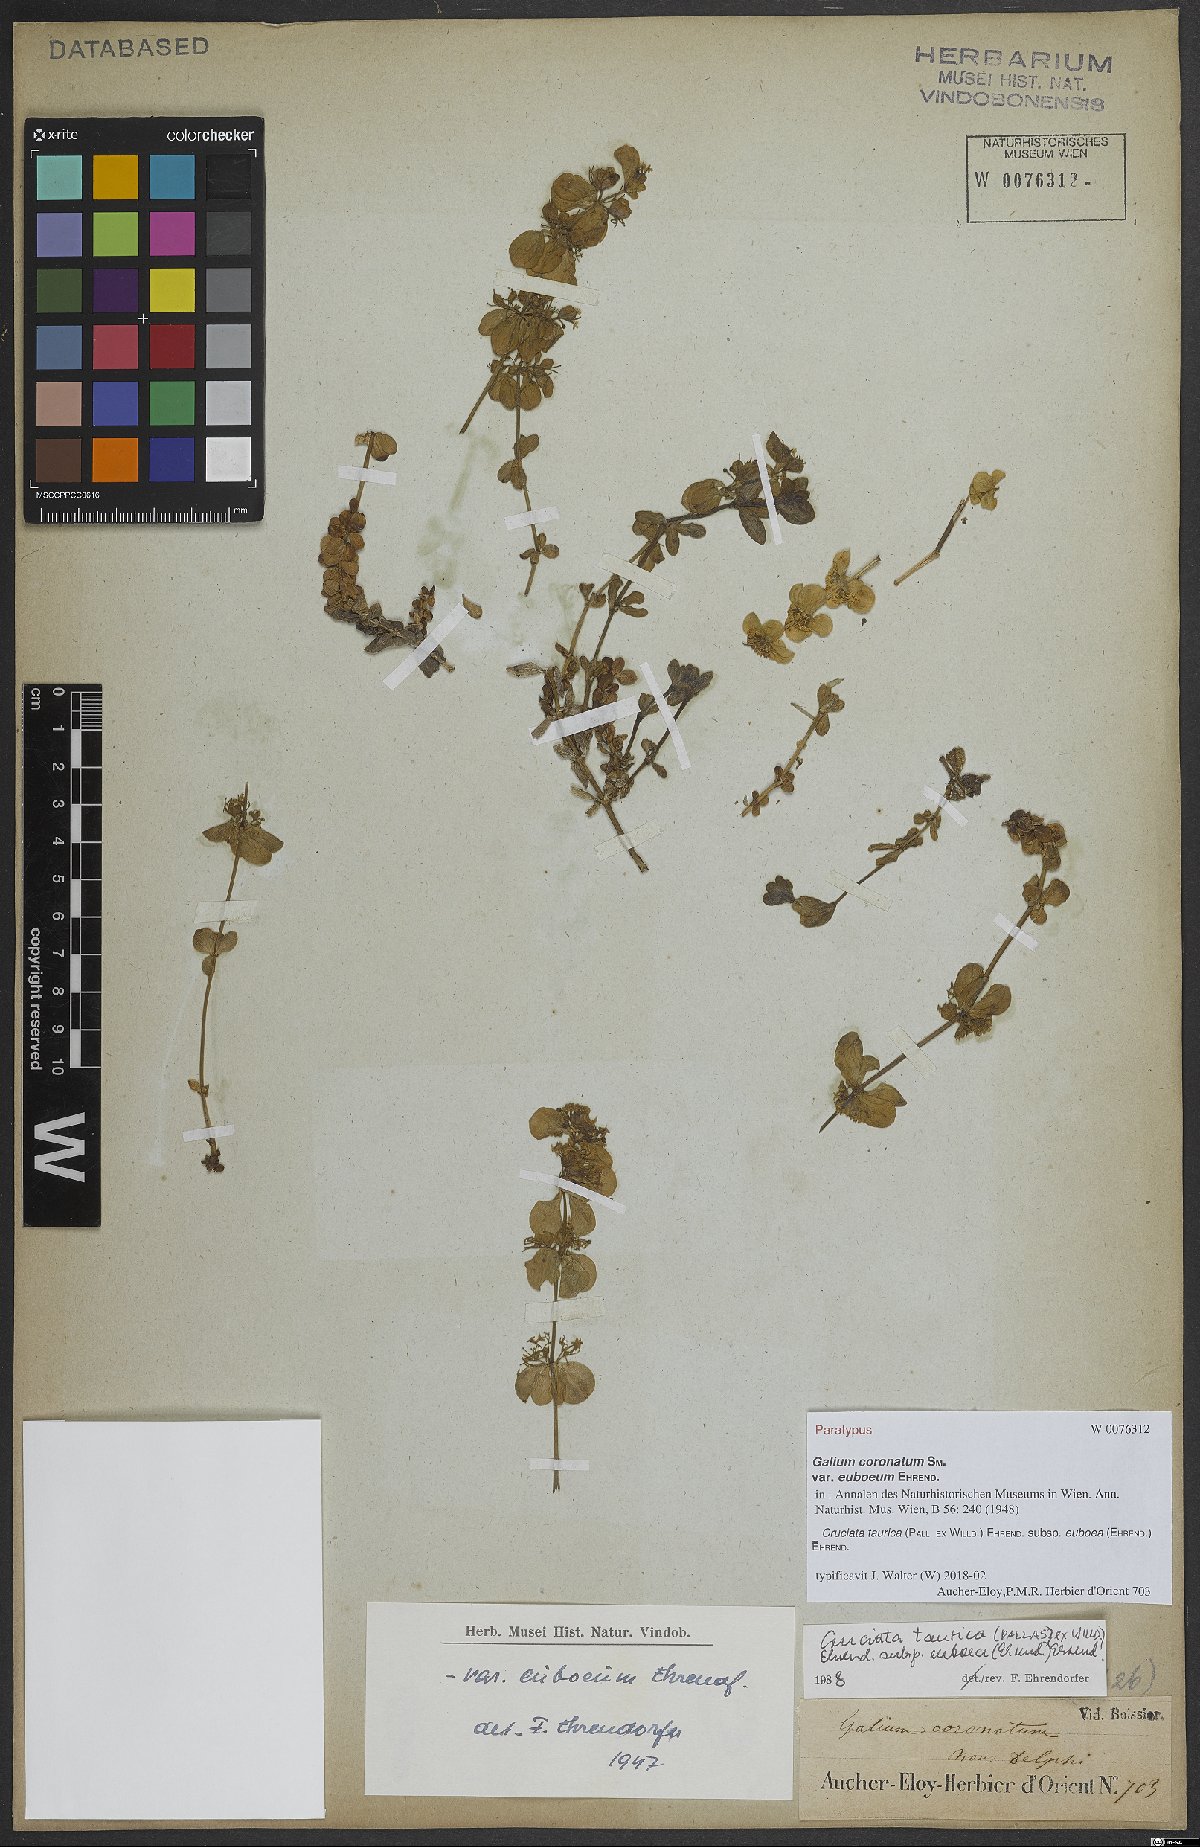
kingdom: Plantae
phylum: Tracheophyta
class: Magnoliopsida
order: Gentianales
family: Rubiaceae
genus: Cruciata
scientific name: Cruciata taurica
